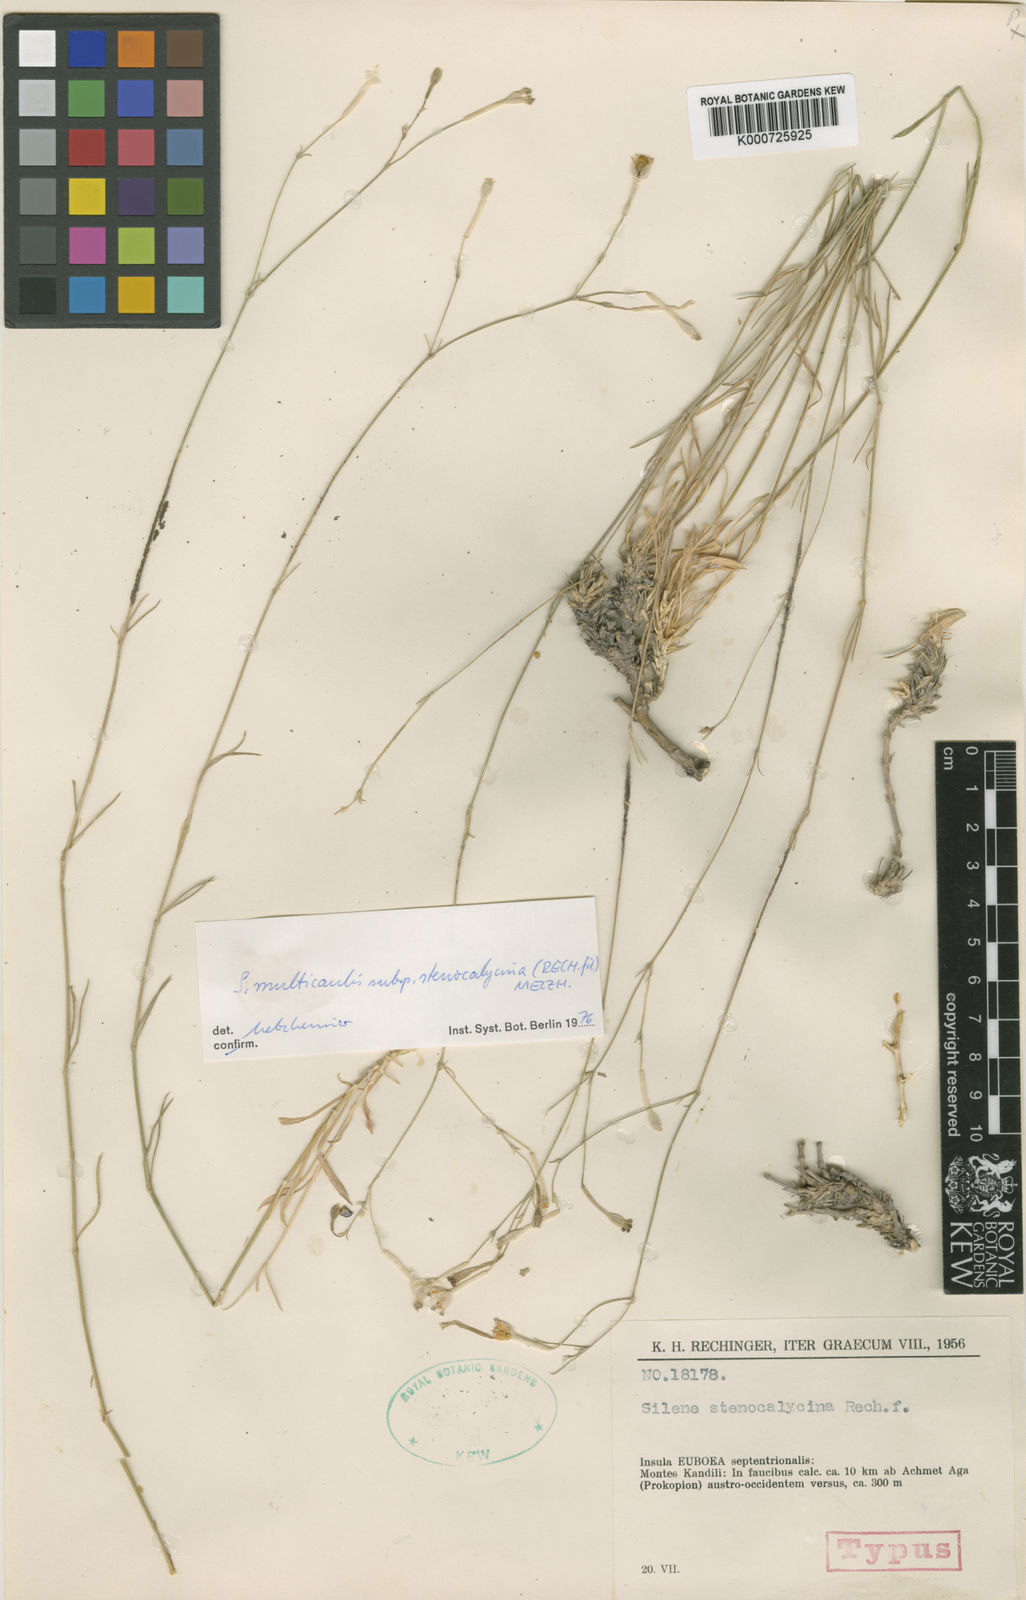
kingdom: Plantae
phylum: Tracheophyta
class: Magnoliopsida
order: Caryophyllales
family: Caryophyllaceae
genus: Silene
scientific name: Silene multicaulis
